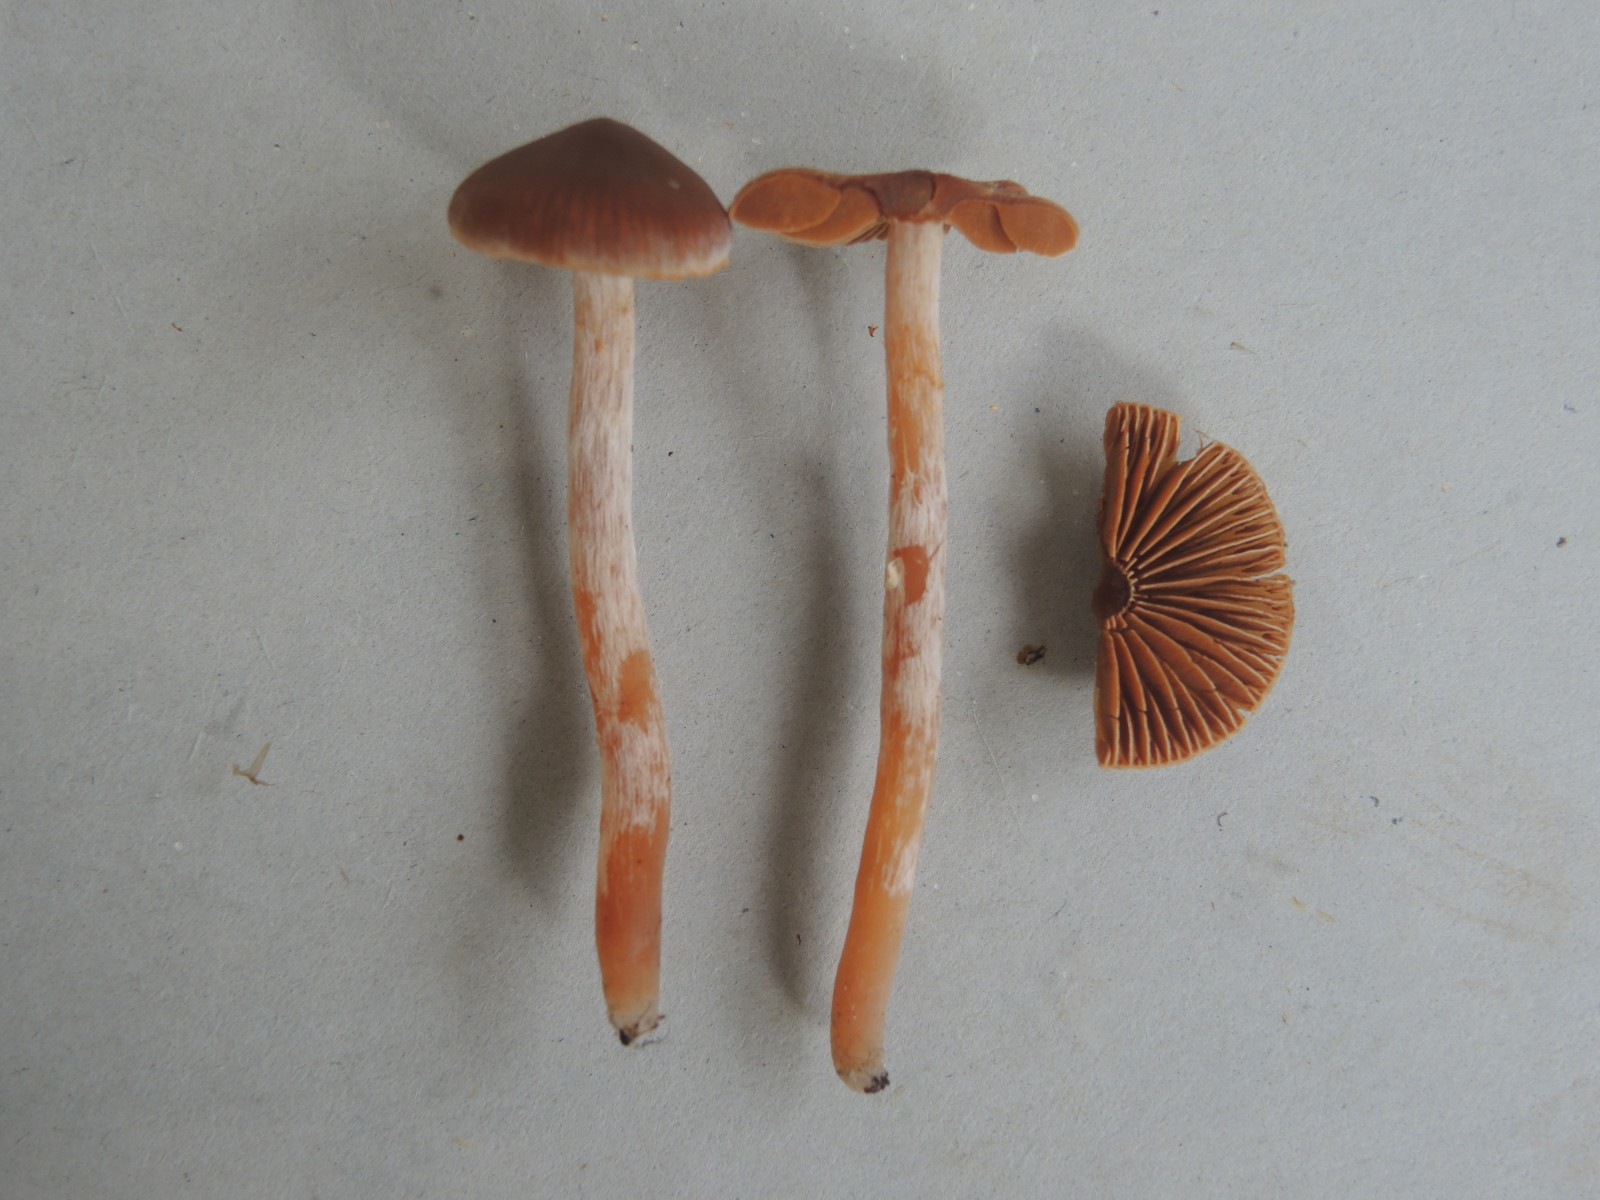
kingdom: Fungi
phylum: Basidiomycota
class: Agaricomycetes
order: Agaricales
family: Cortinariaceae
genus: Cortinarius
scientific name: Cortinarius
